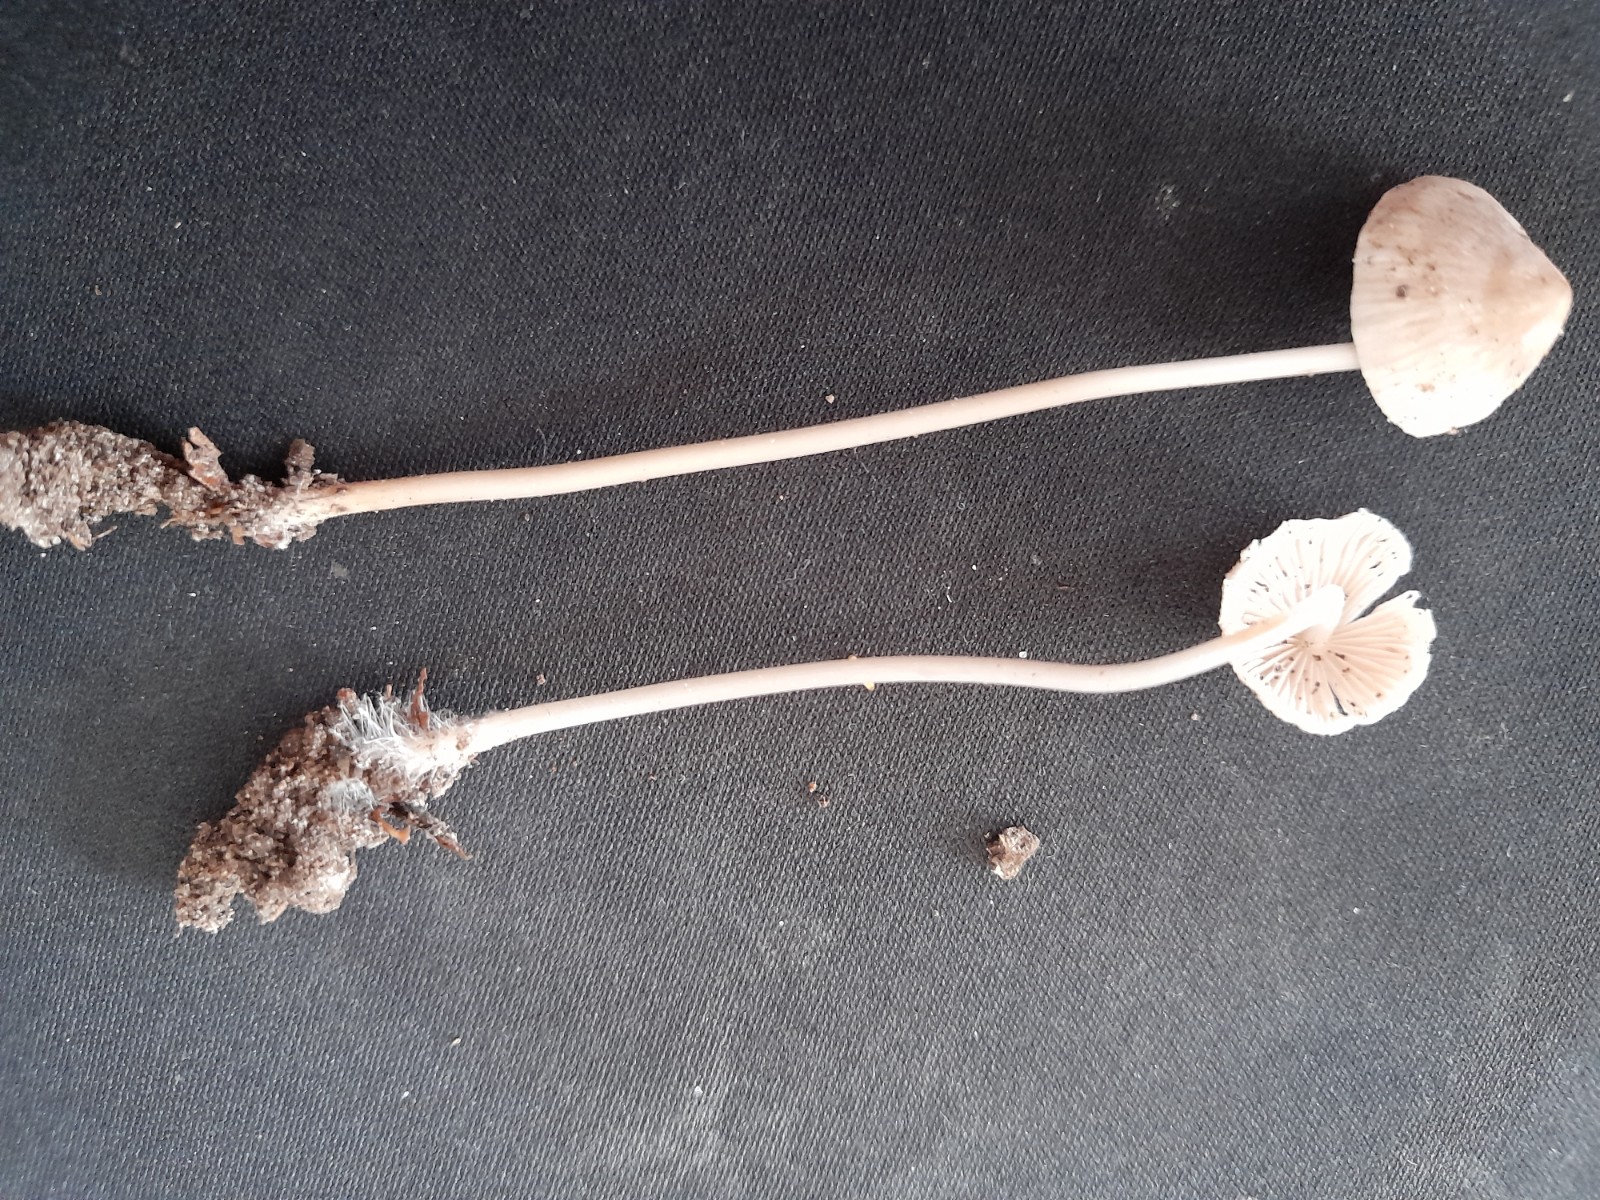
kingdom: Fungi
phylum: Basidiomycota
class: Agaricomycetes
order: Agaricales
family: Mycenaceae
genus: Mycena
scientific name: Mycena
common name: huesvamp
